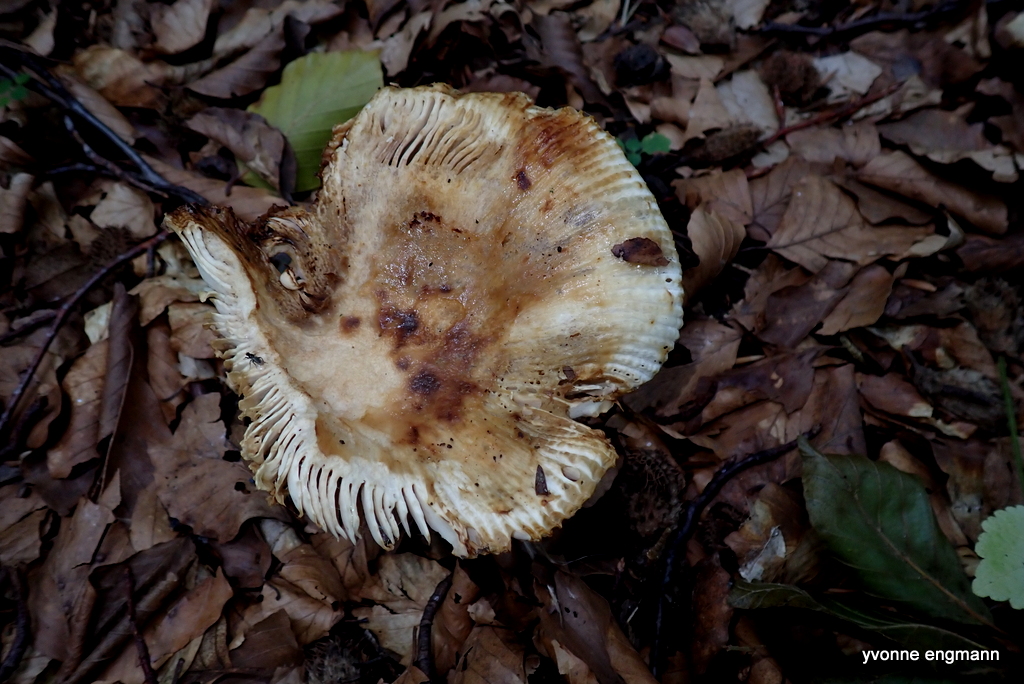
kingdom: Fungi
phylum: Basidiomycota
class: Agaricomycetes
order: Russulales
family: Russulaceae
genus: Russula
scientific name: Russula foetens
